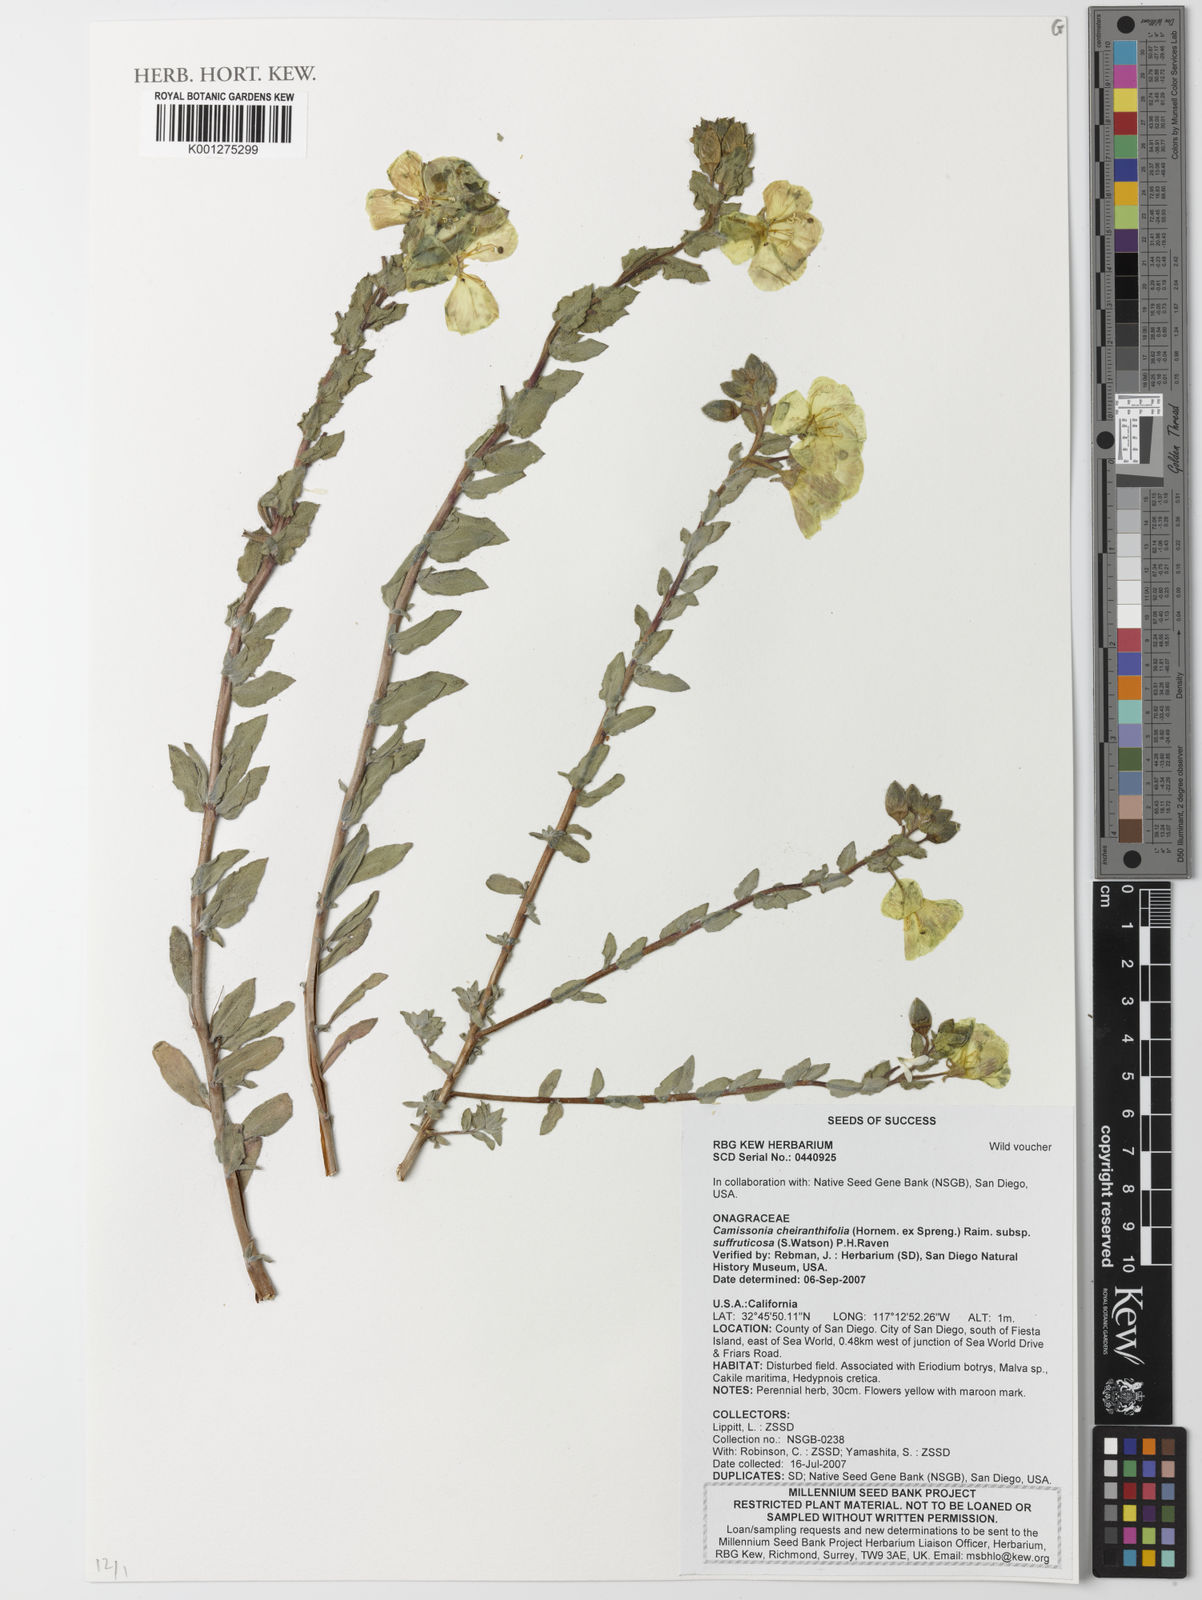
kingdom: Plantae
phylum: Tracheophyta
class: Magnoliopsida
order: Myrtales
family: Onagraceae
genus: Camissoniopsis
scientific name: Camissoniopsis cheiranthifolia
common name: Beach suncup
